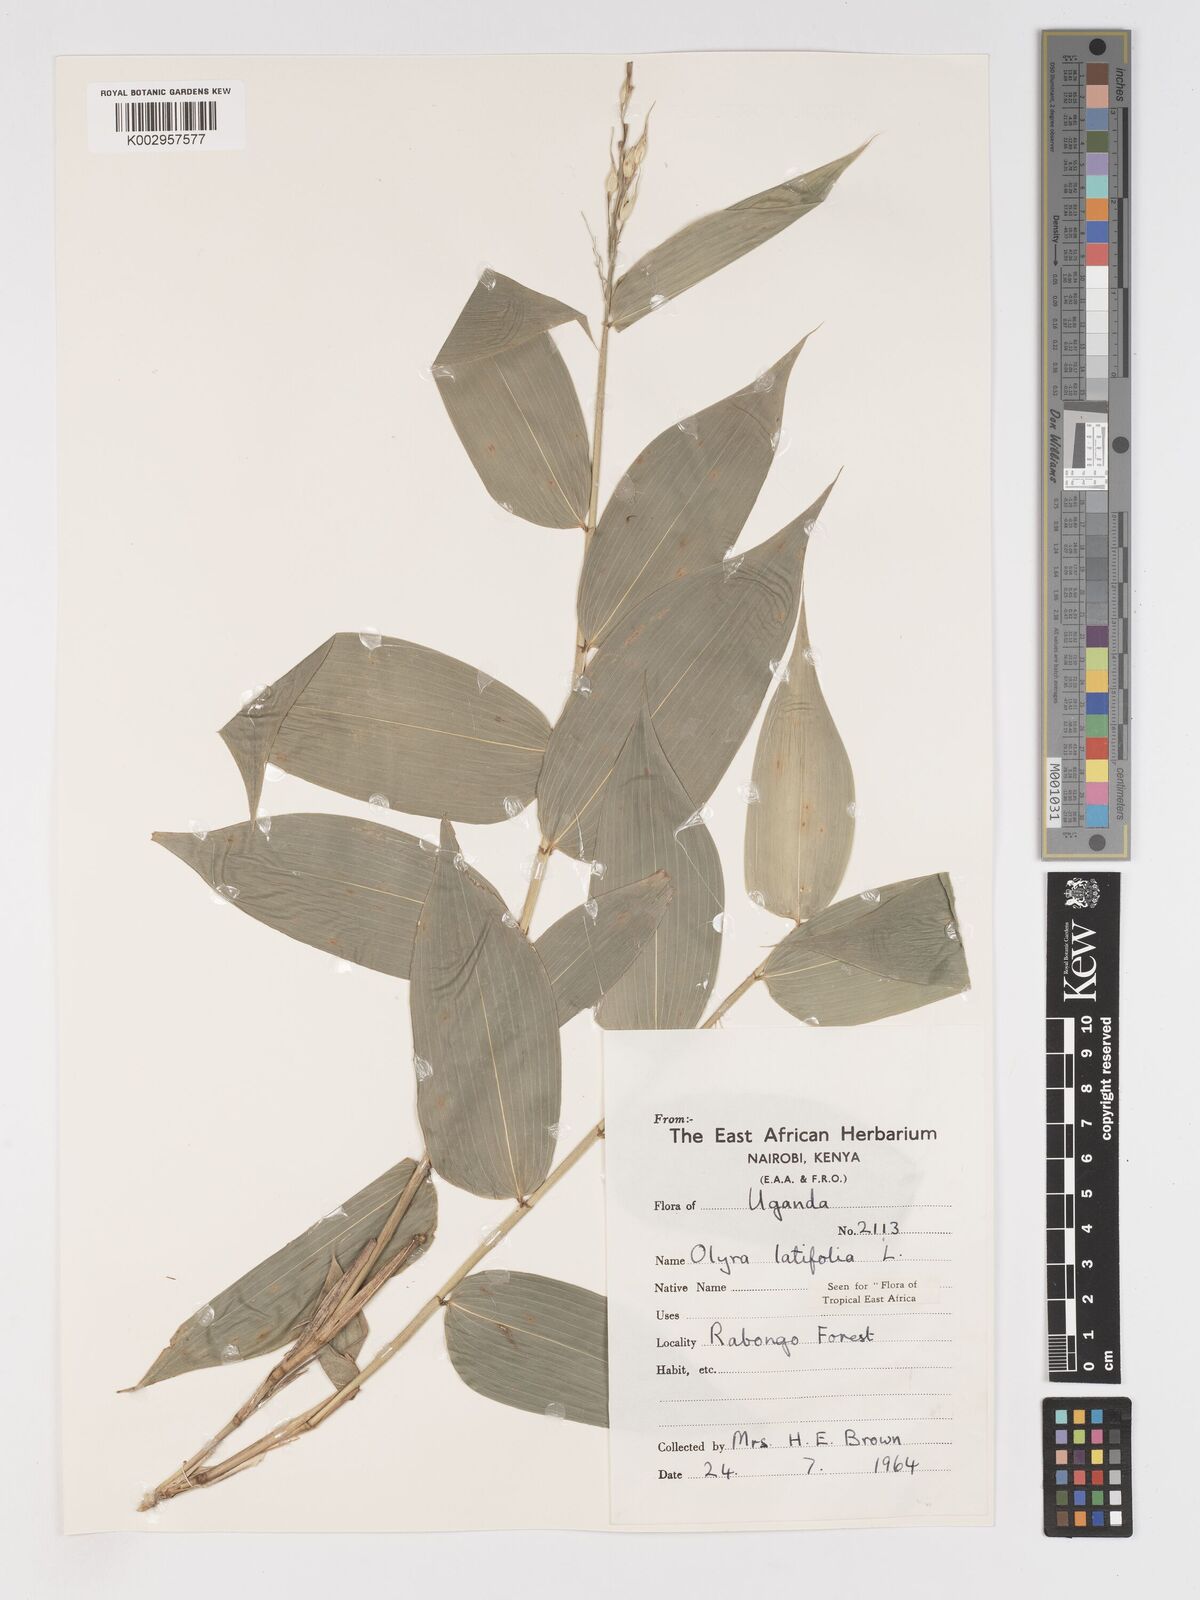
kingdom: Plantae
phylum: Tracheophyta
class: Liliopsida
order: Poales
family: Poaceae
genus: Olyra
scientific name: Olyra latifolia
